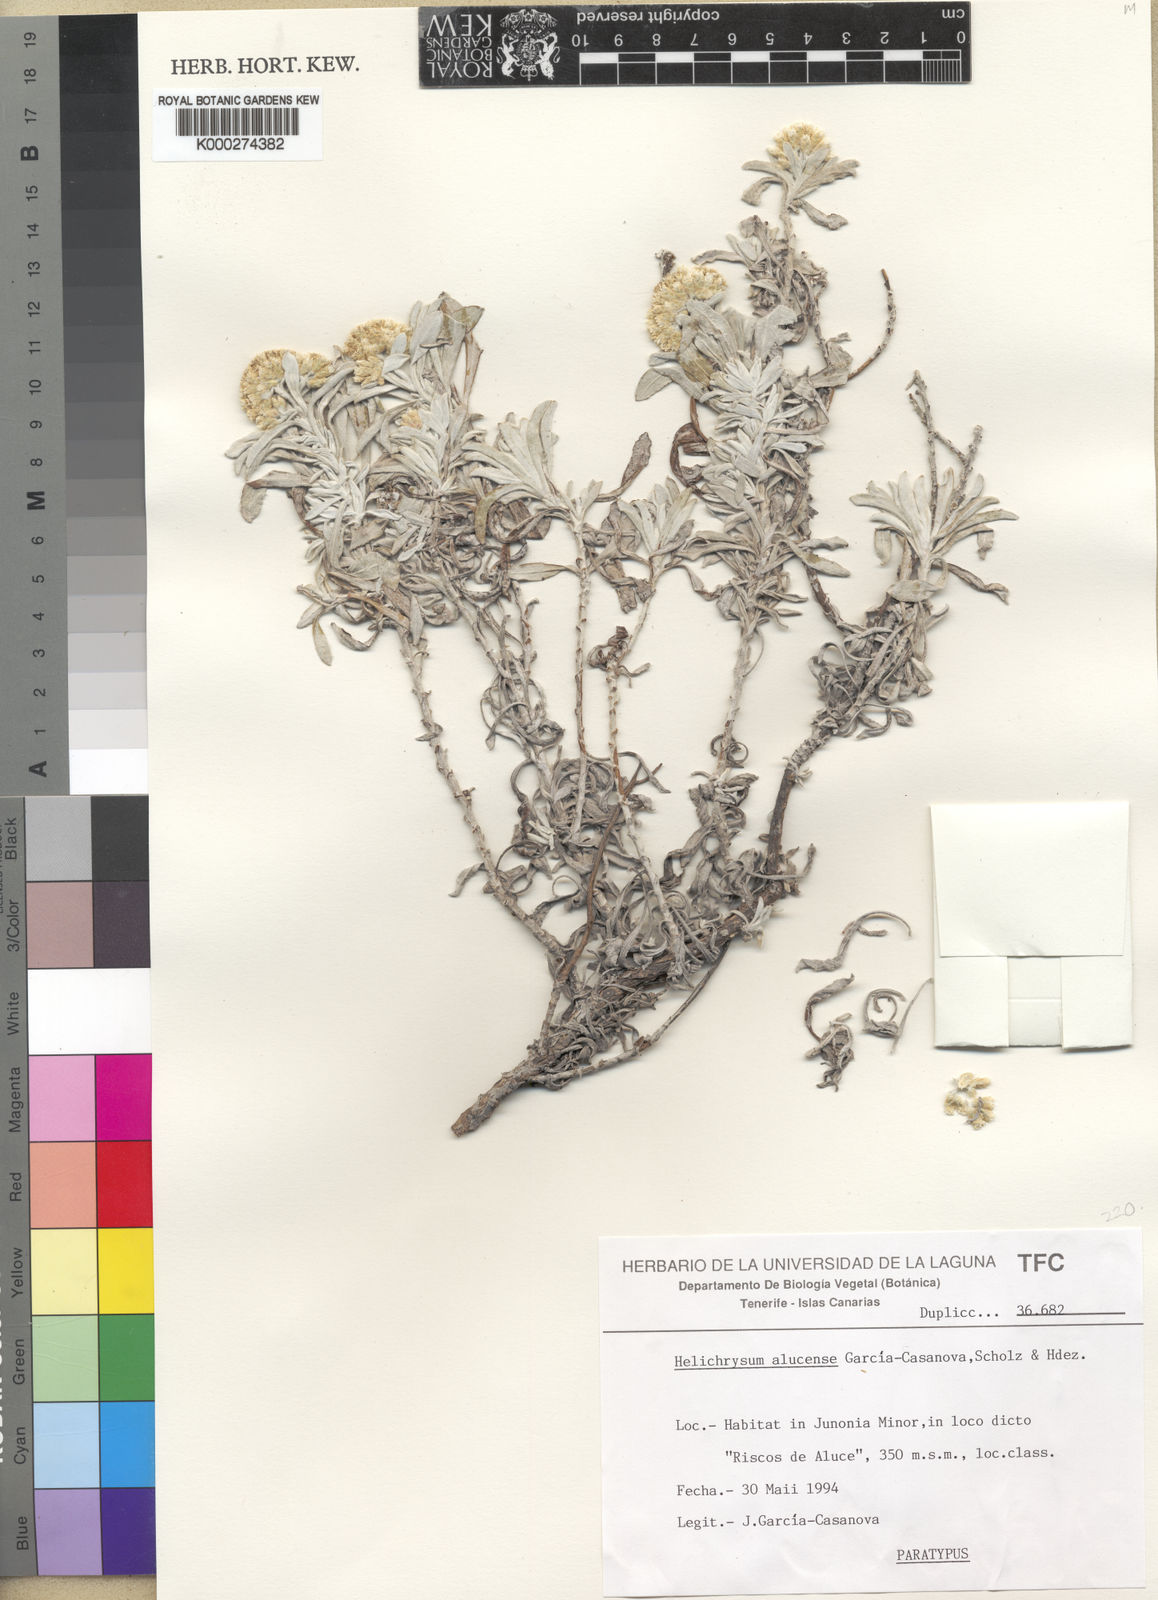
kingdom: Plantae
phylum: Tracheophyta
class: Magnoliopsida
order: Asterales
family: Asteraceae
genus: Helichrysum
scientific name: Helichrysum
